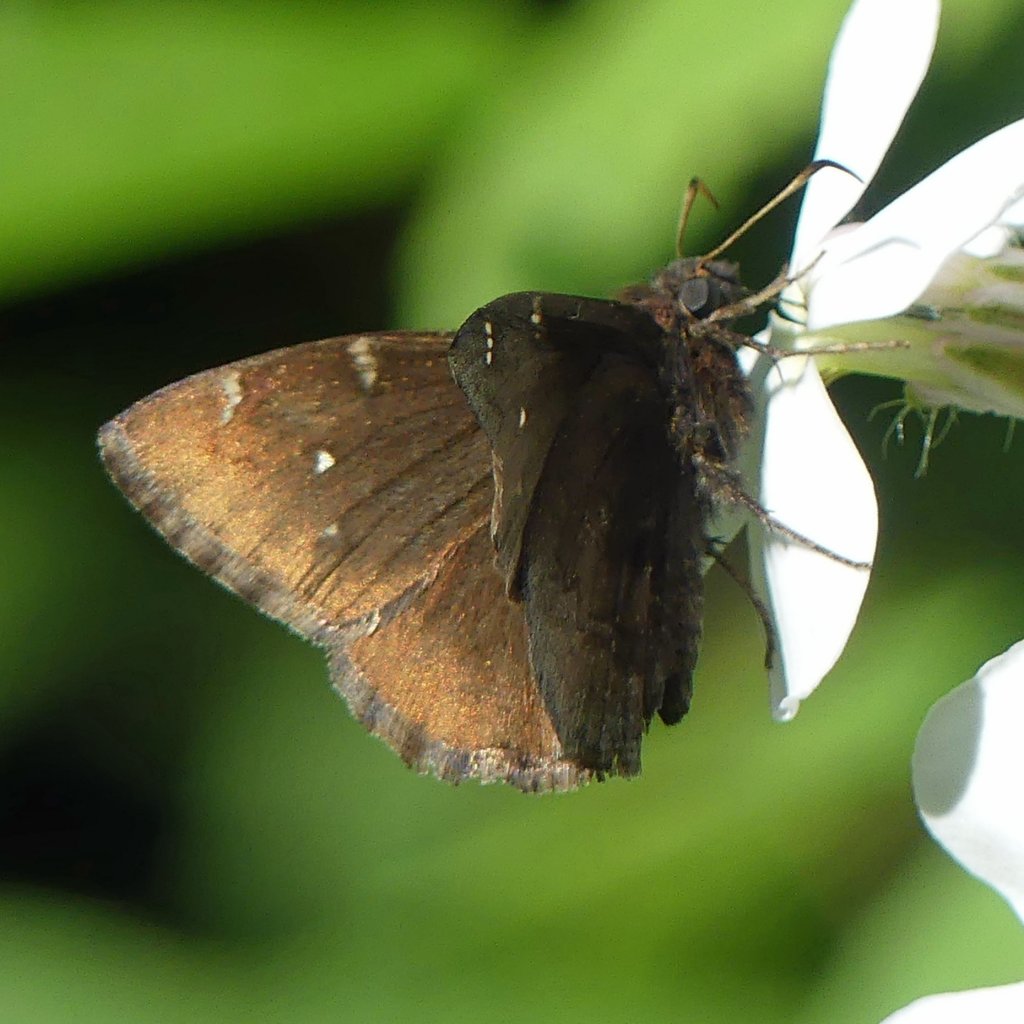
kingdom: Animalia
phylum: Arthropoda
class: Insecta
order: Lepidoptera
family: Hesperiidae
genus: Autochton
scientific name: Autochton
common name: Northern Cloudywing
